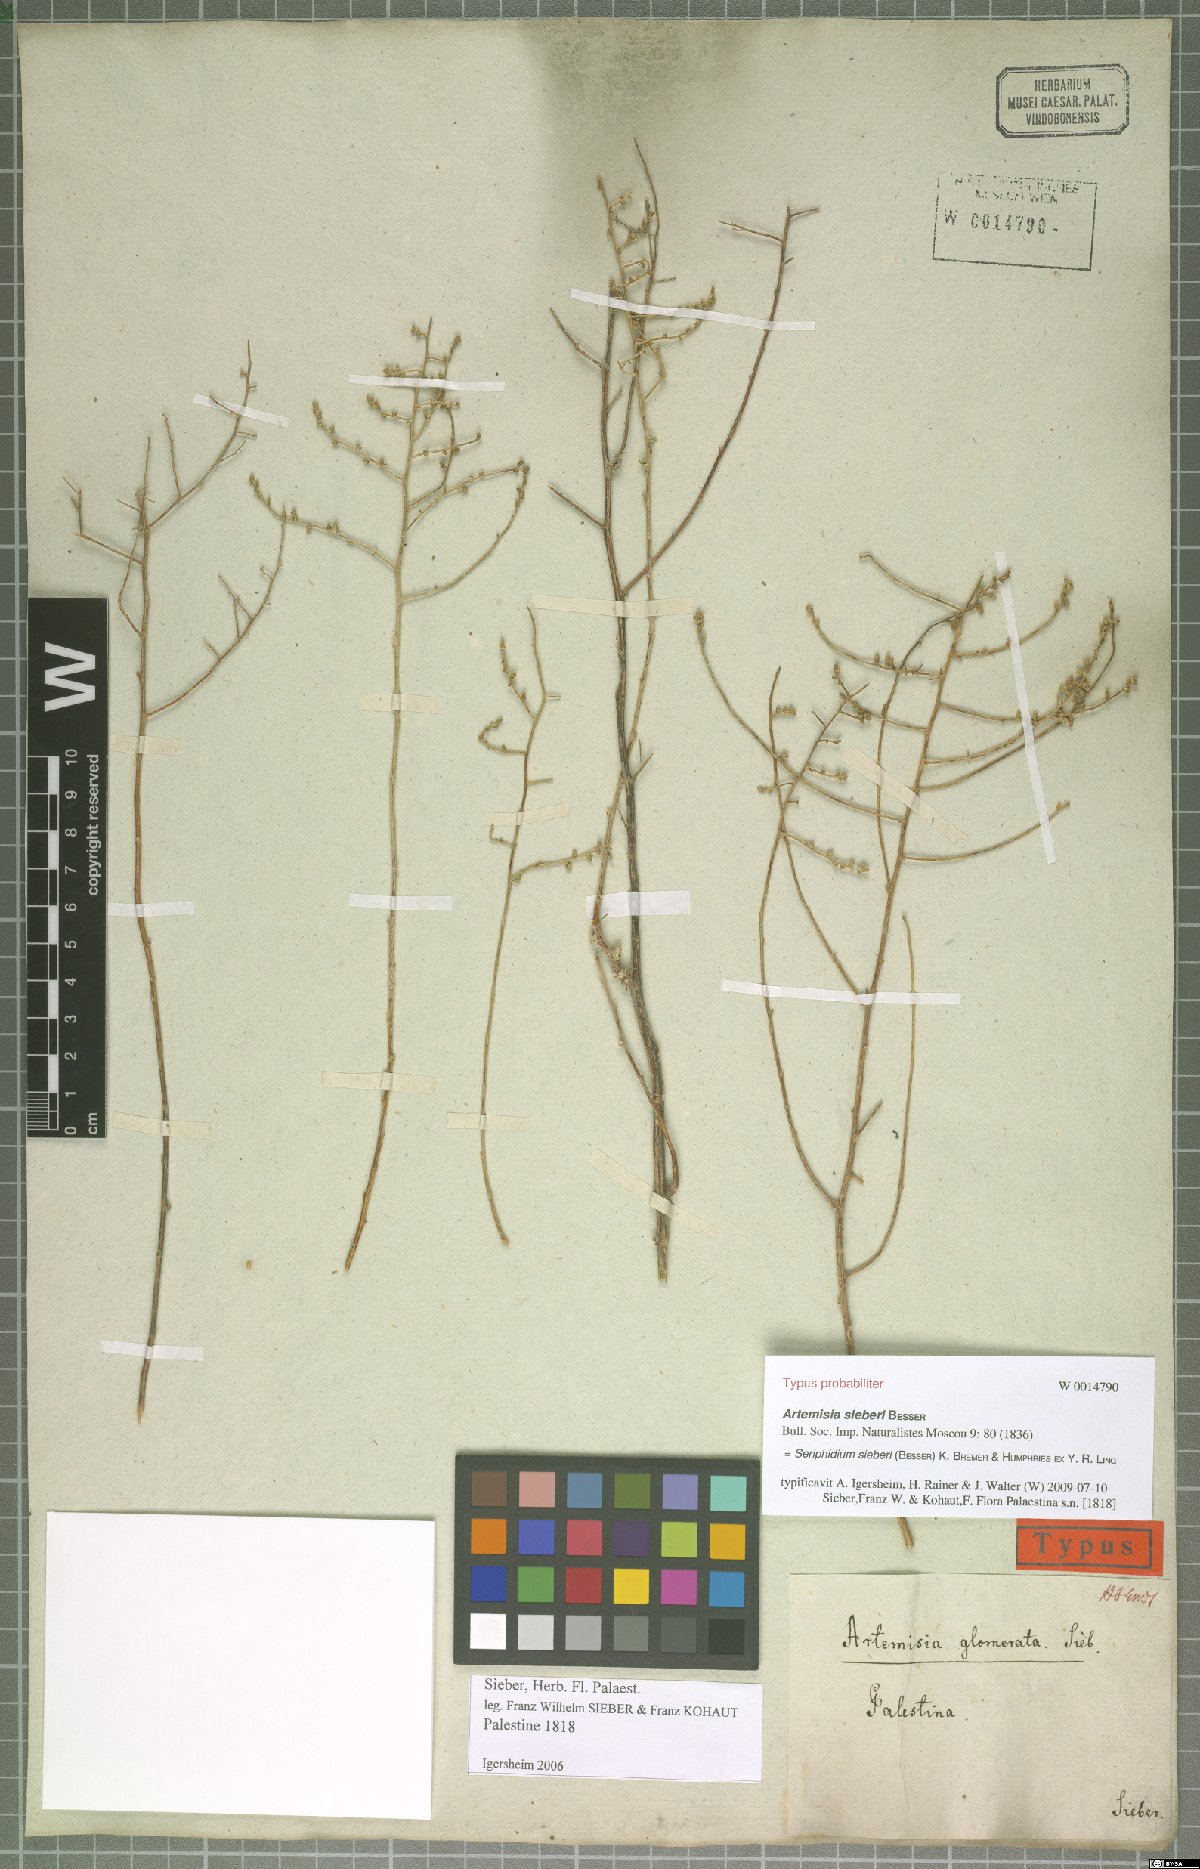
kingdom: Plantae
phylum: Tracheophyta
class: Magnoliopsida
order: Asterales
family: Asteraceae
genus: Artemisia
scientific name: Artemisia sieberi
